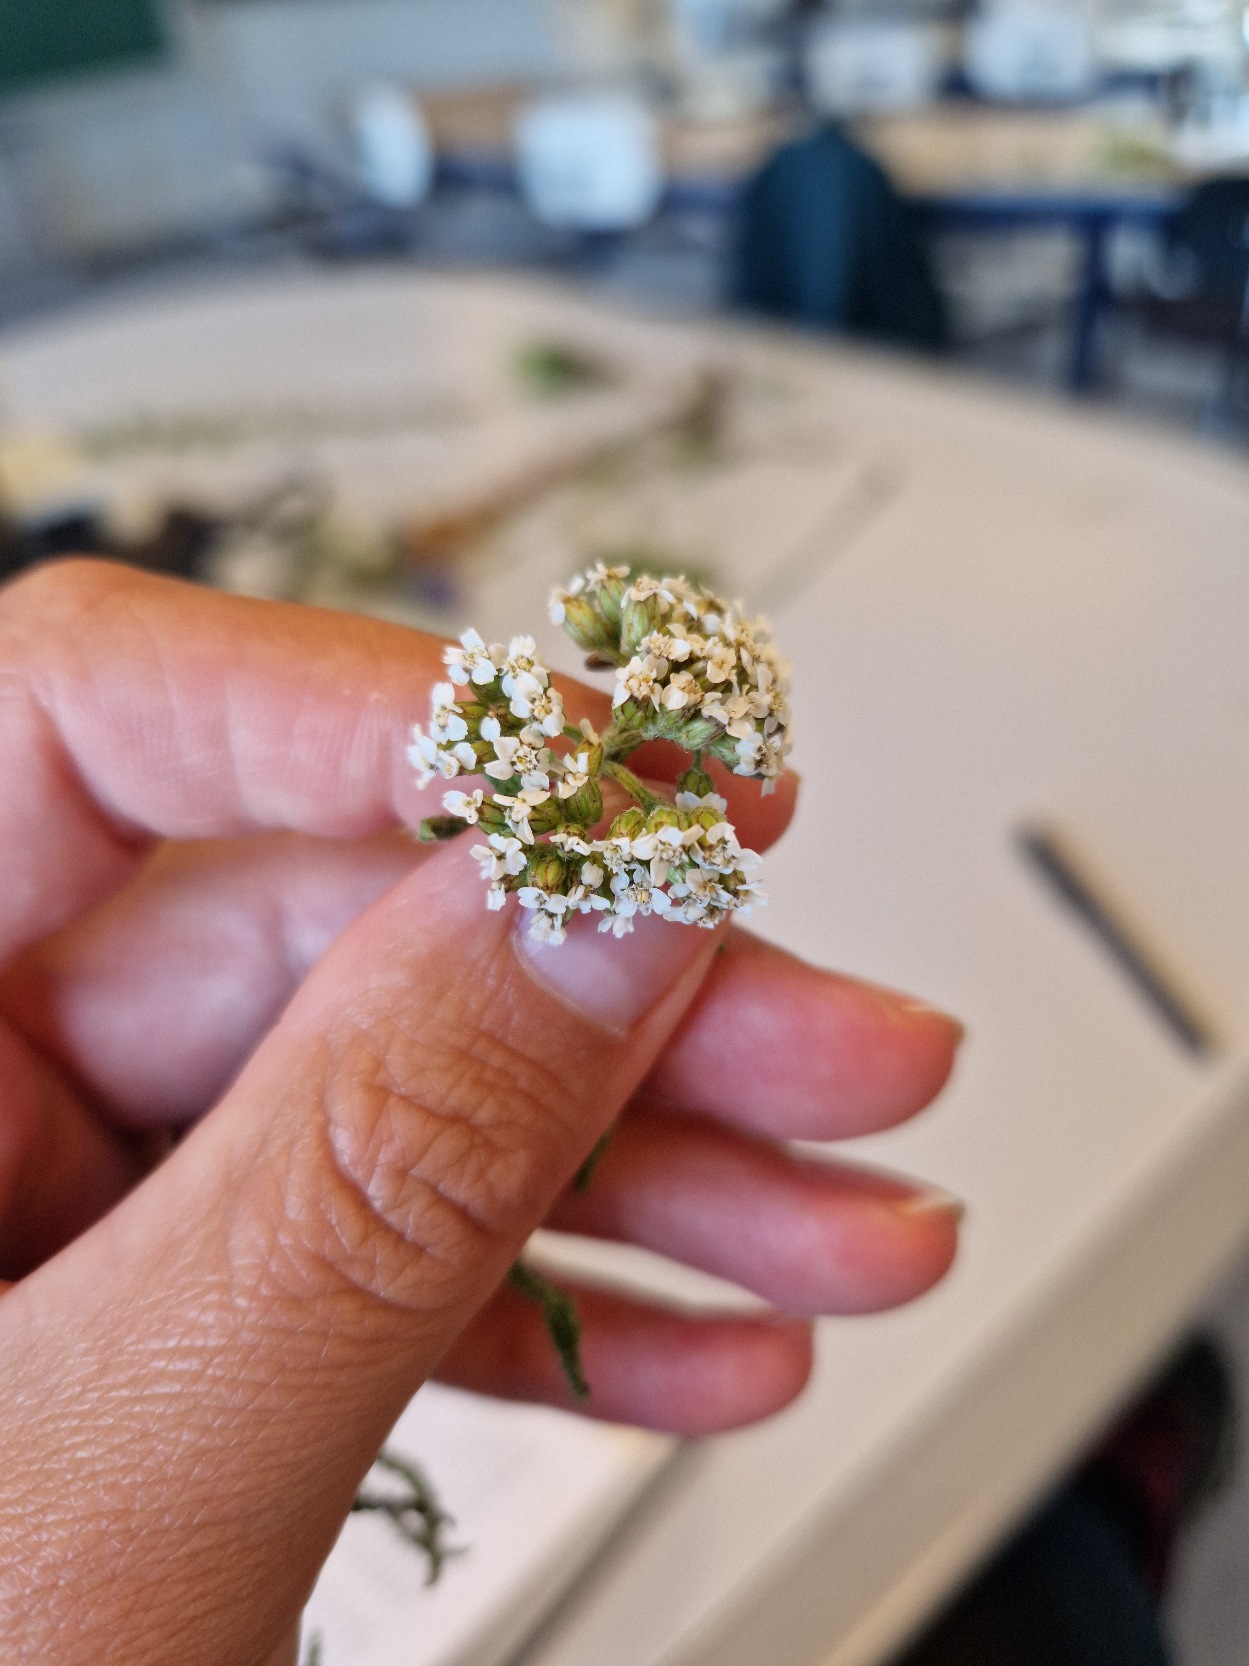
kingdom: Plantae
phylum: Tracheophyta
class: Magnoliopsida
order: Asterales
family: Asteraceae
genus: Achillea
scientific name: Achillea millefolium
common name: Almindelig røllike
